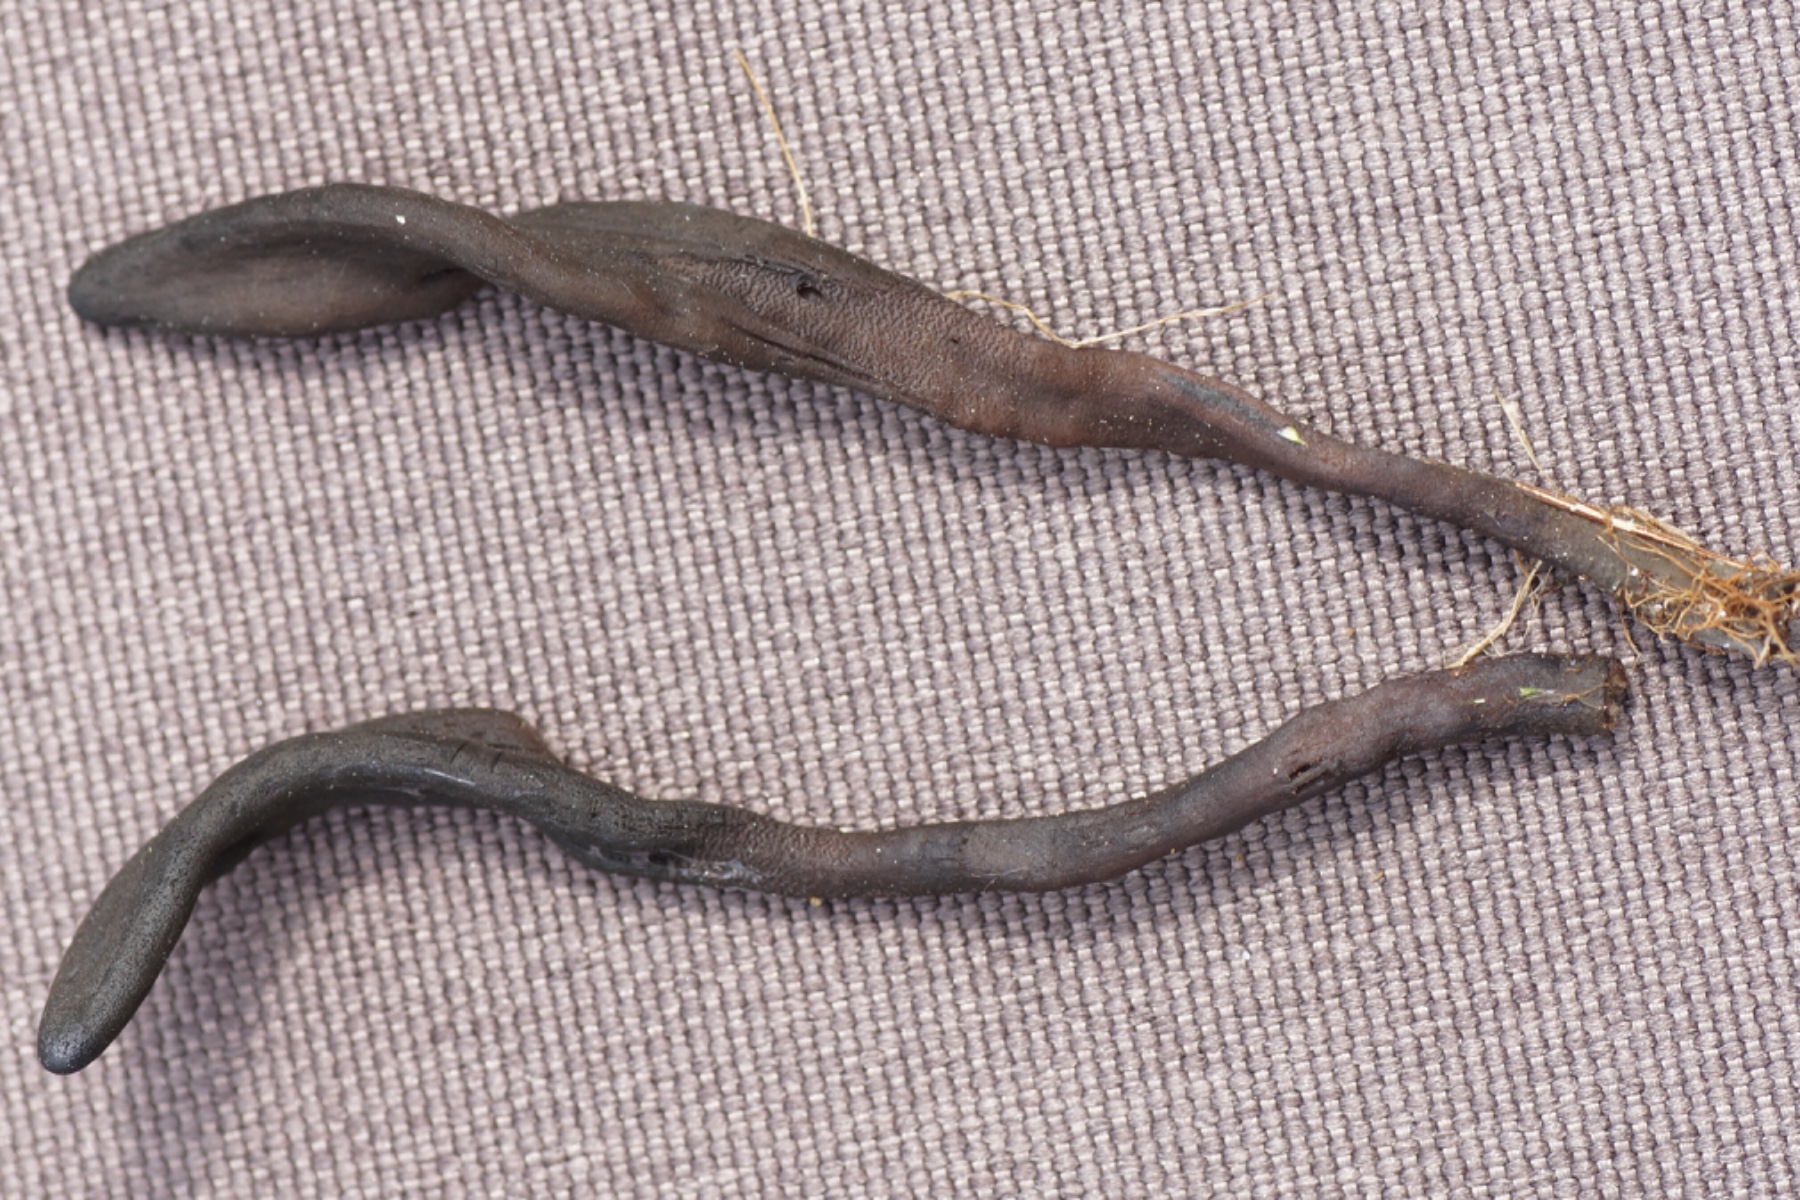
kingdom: Fungi
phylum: Ascomycota
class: Geoglossomycetes
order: Geoglossales
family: Geoglossaceae
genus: Geoglossum
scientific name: Geoglossum starbaeckii
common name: nordlig jordtunge
